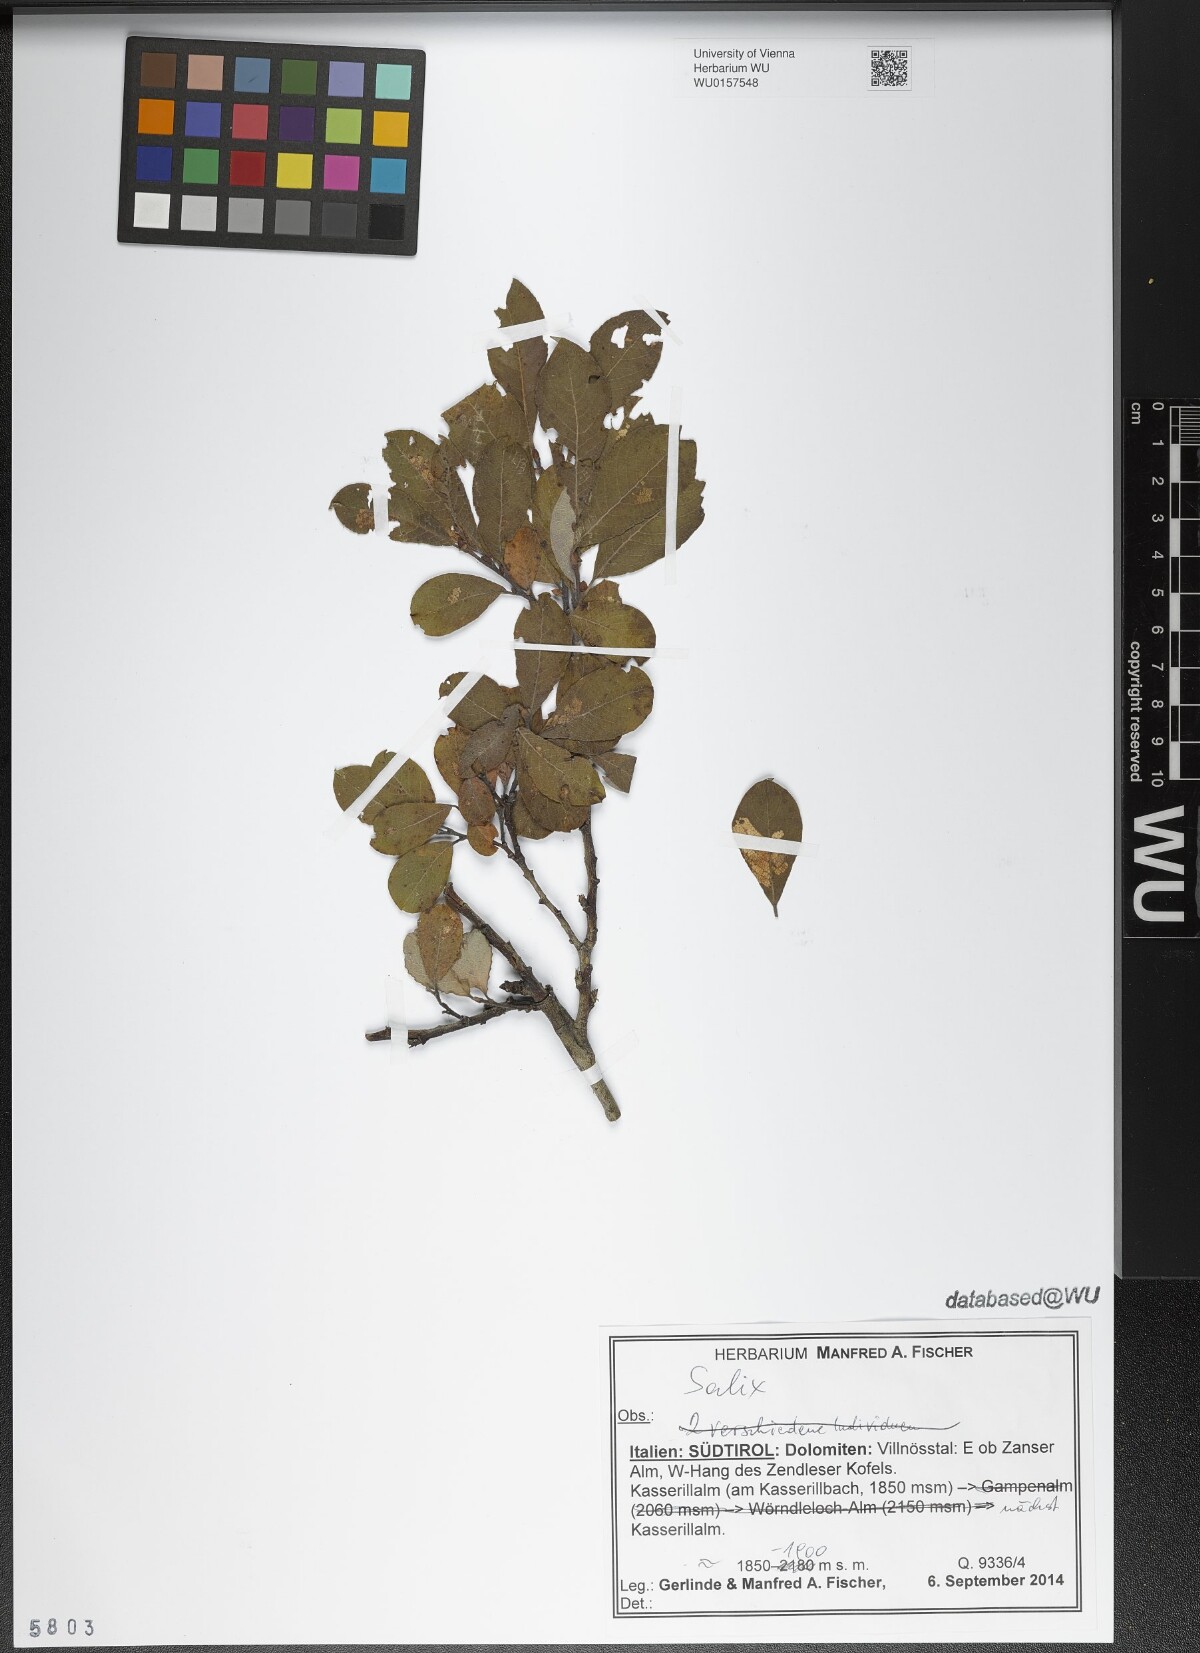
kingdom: Plantae
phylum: Tracheophyta
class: Magnoliopsida
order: Malpighiales
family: Salicaceae
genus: Salix
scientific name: Salix
